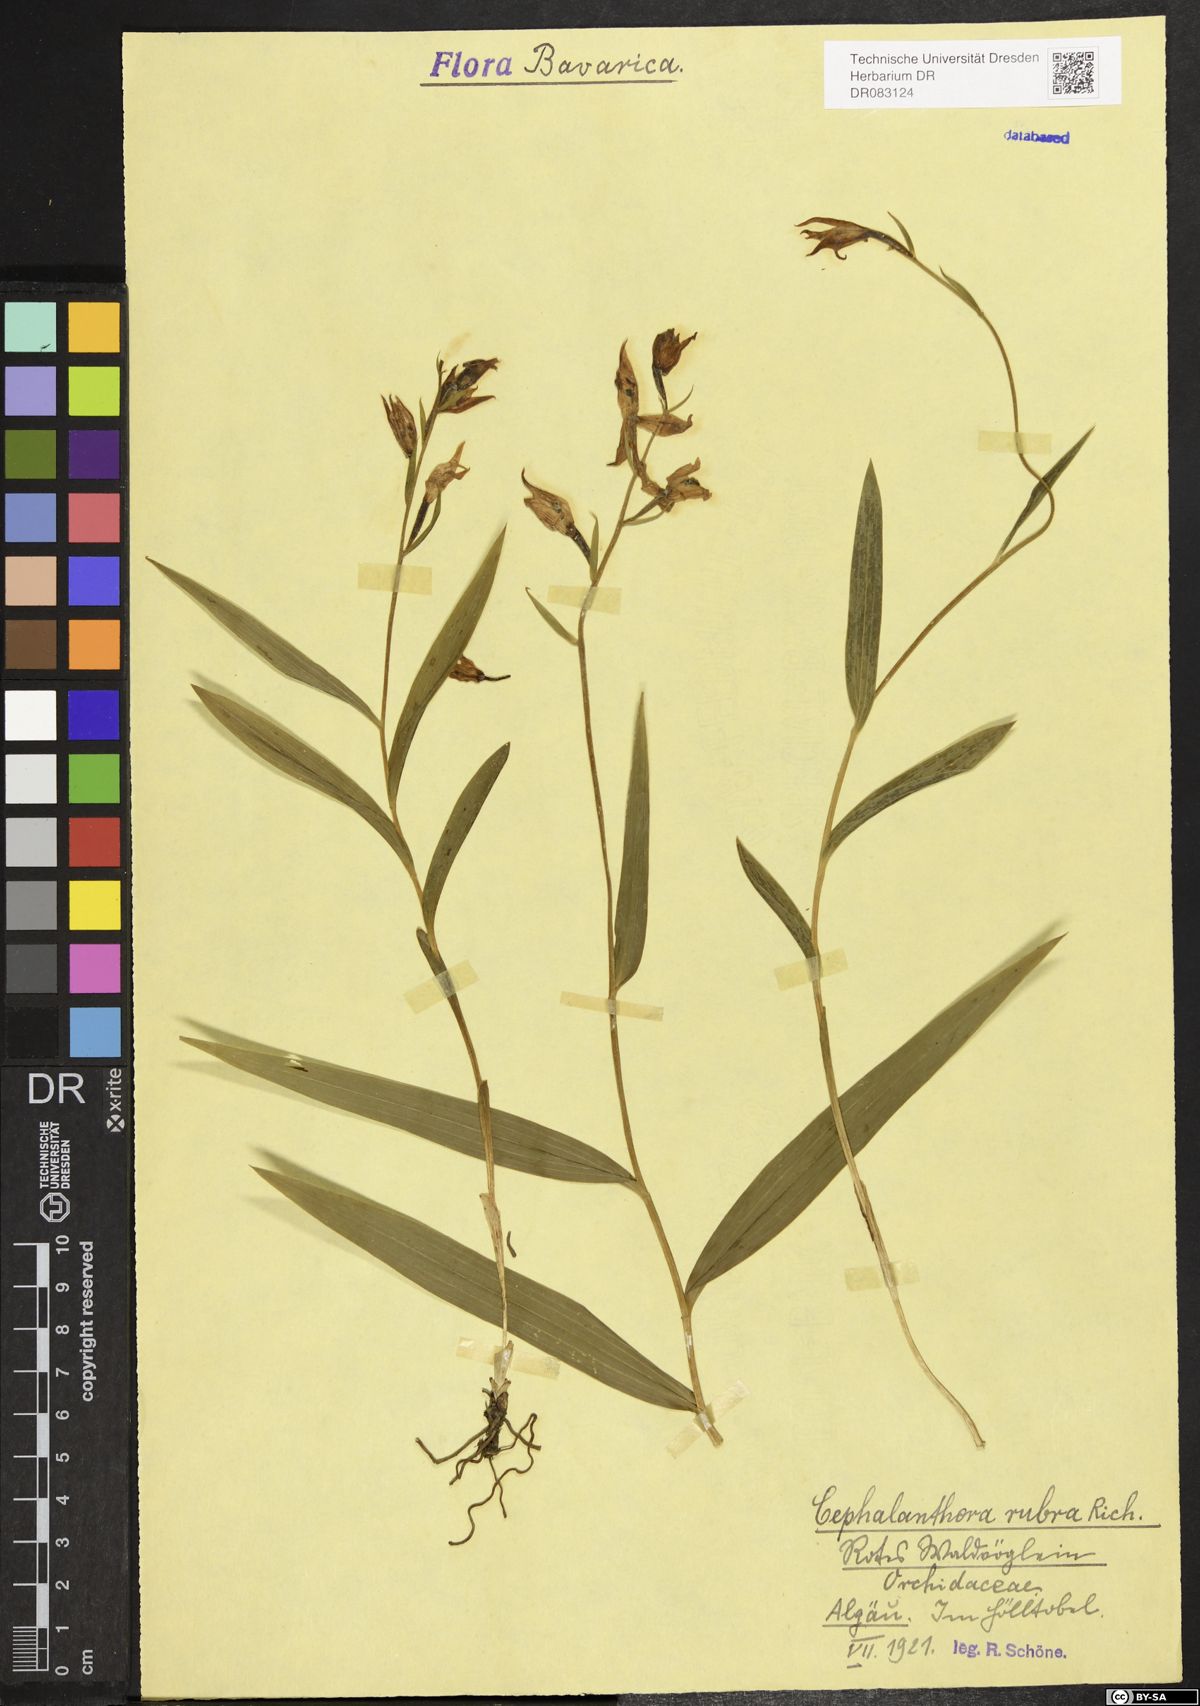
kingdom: Plantae
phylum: Tracheophyta
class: Liliopsida
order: Asparagales
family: Orchidaceae
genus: Cephalanthera
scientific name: Cephalanthera rubra
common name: Red helleborine
